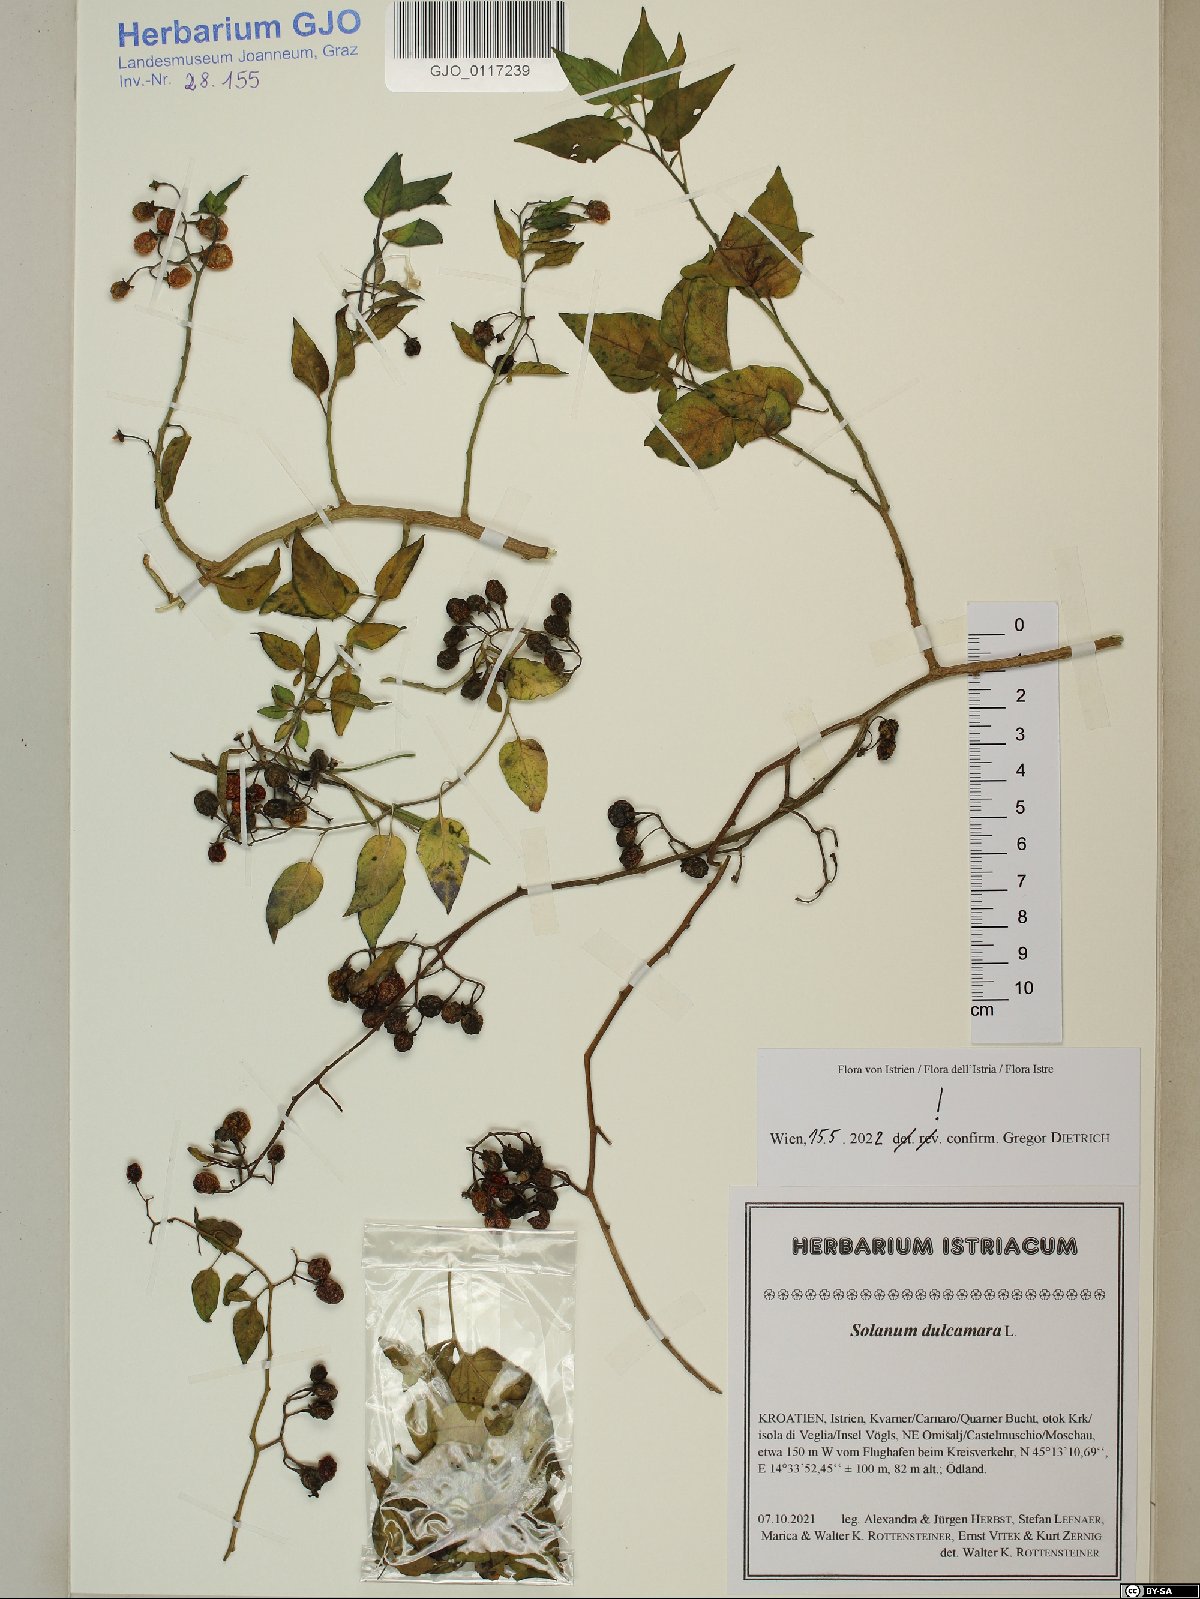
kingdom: Plantae
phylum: Tracheophyta
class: Magnoliopsida
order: Solanales
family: Solanaceae
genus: Solanum
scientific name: Solanum dulcamara
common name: Climbing nightshade
